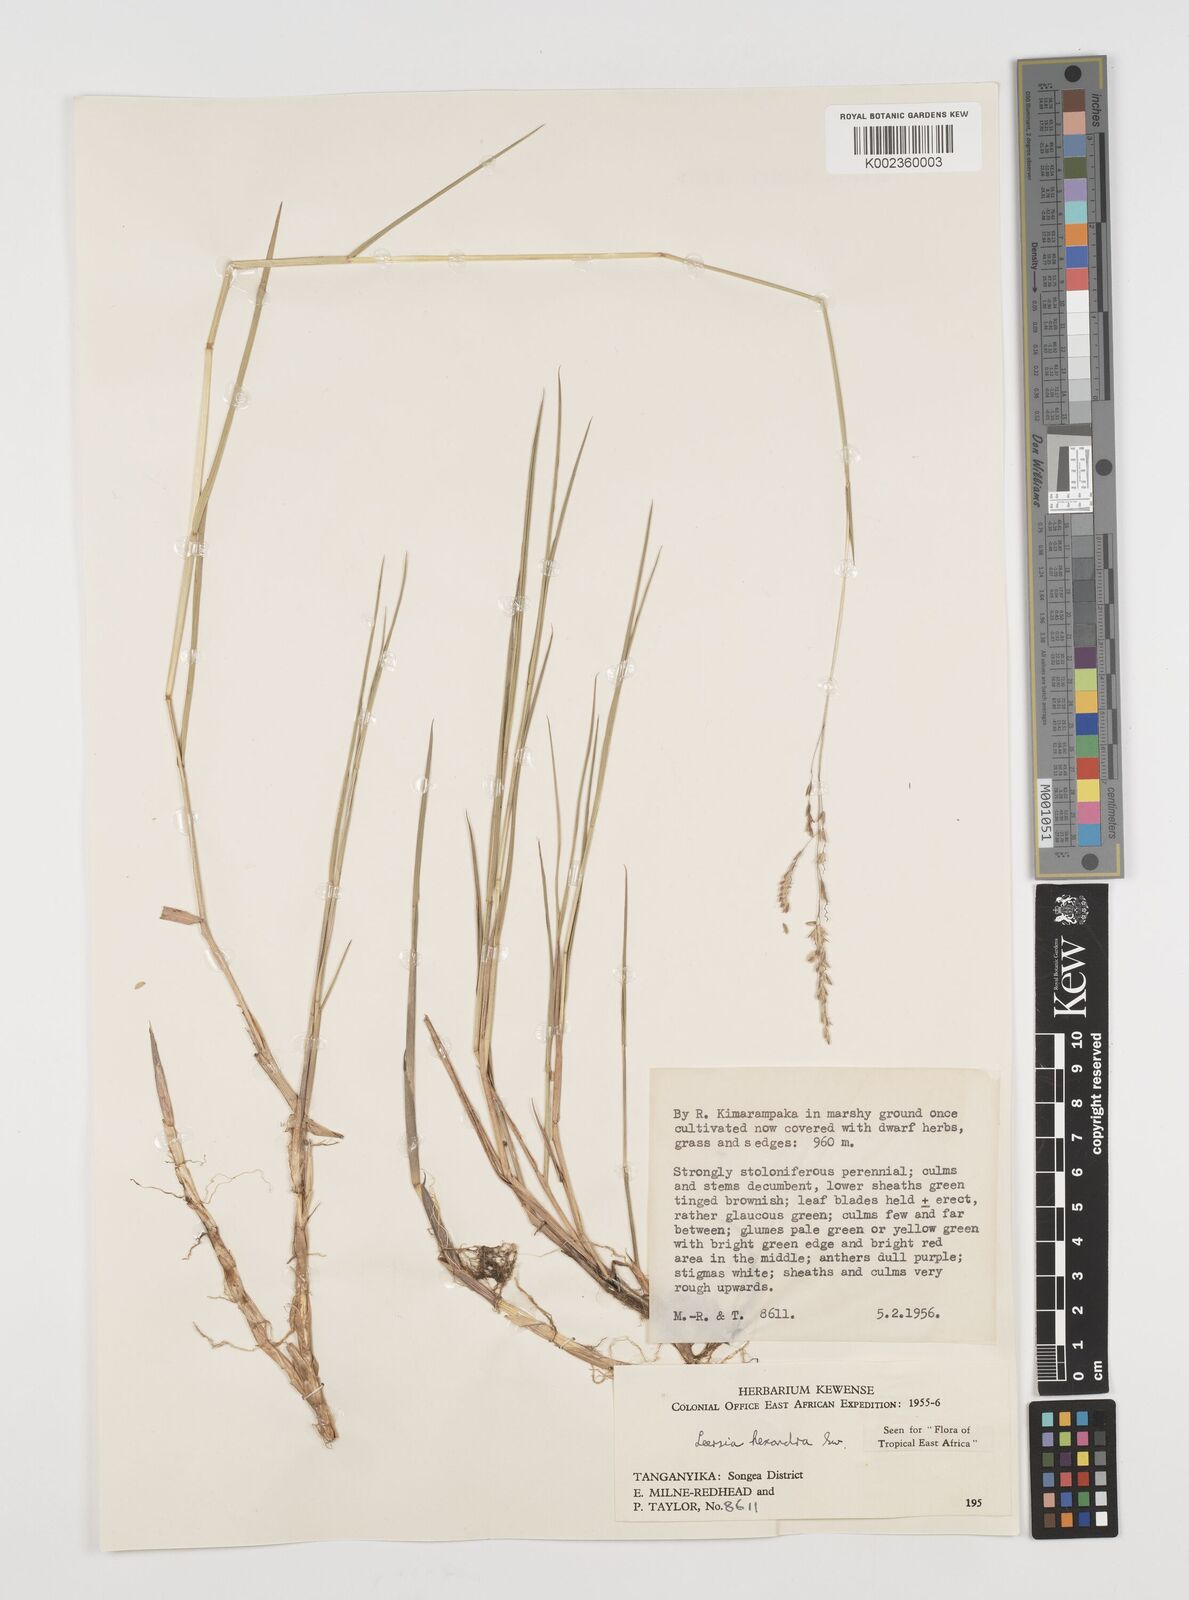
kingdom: Plantae
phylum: Tracheophyta
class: Liliopsida
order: Poales
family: Poaceae
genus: Leersia
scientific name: Leersia hexandra
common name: Southern cut grass
